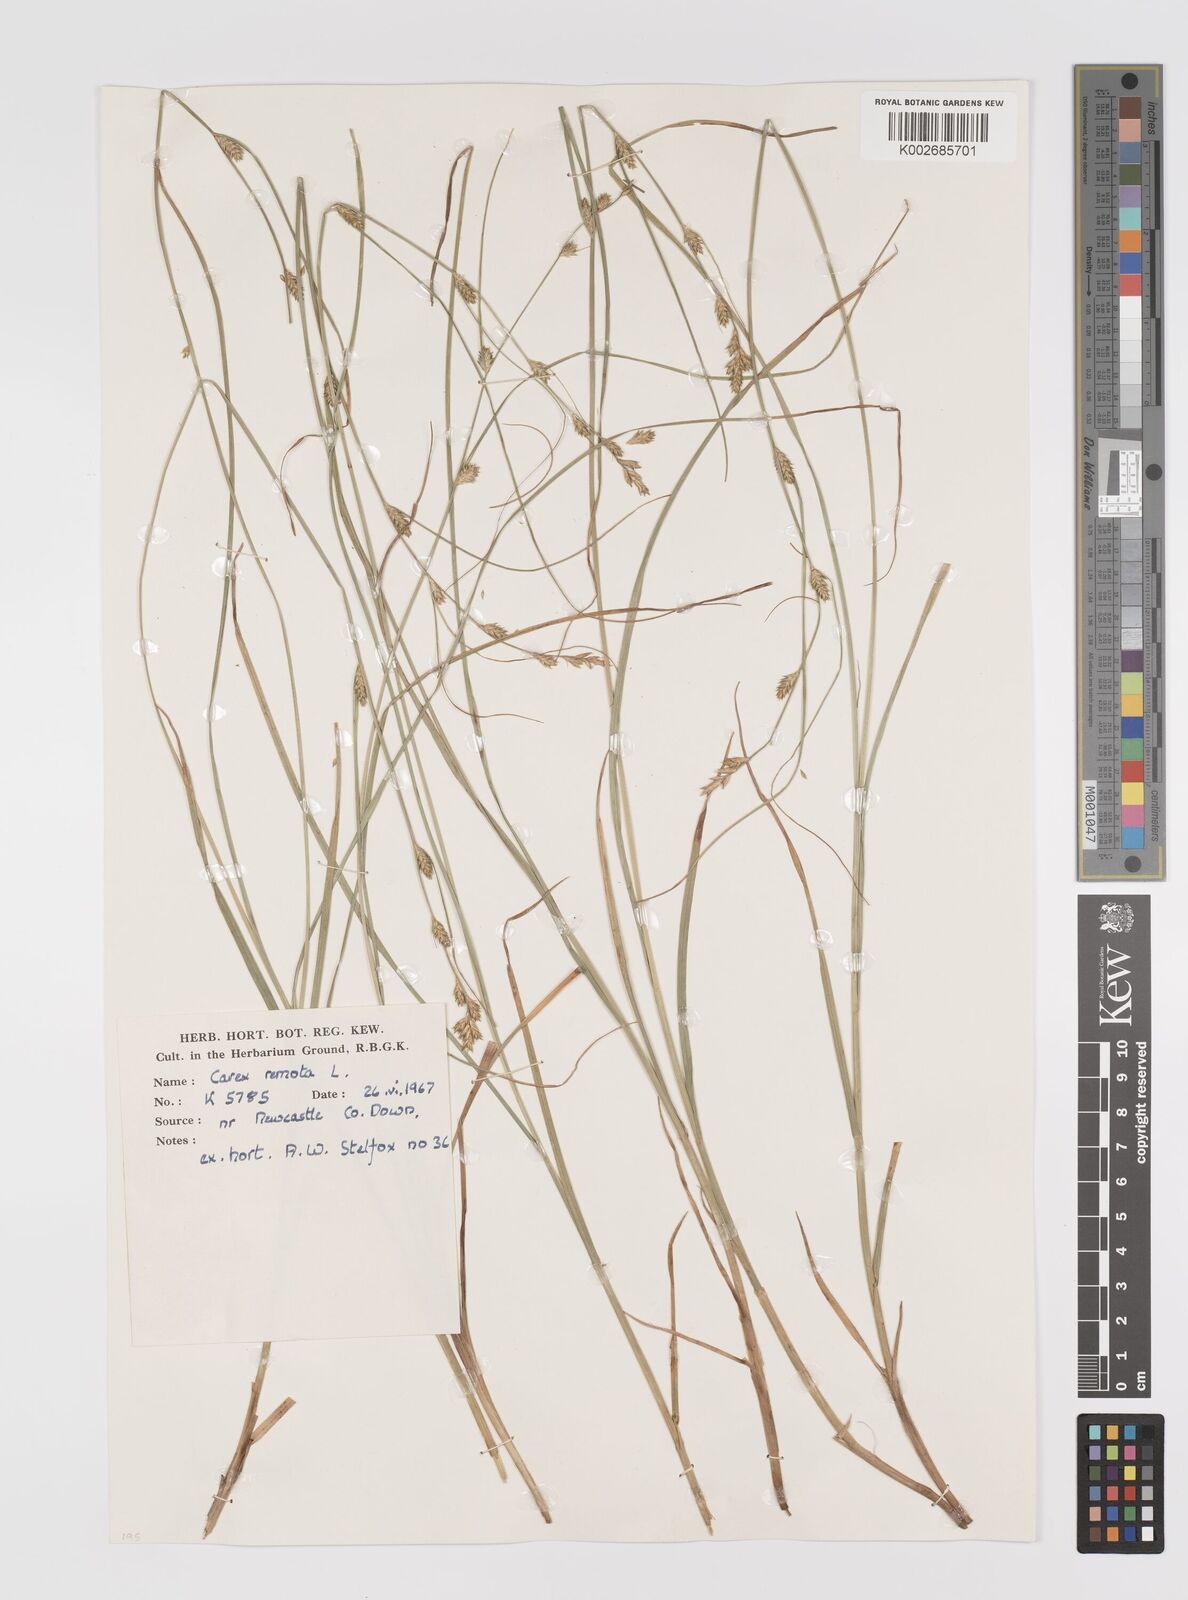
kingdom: Plantae
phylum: Tracheophyta
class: Liliopsida
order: Poales
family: Cyperaceae
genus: Carex
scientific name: Carex remota
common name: Remote sedge
